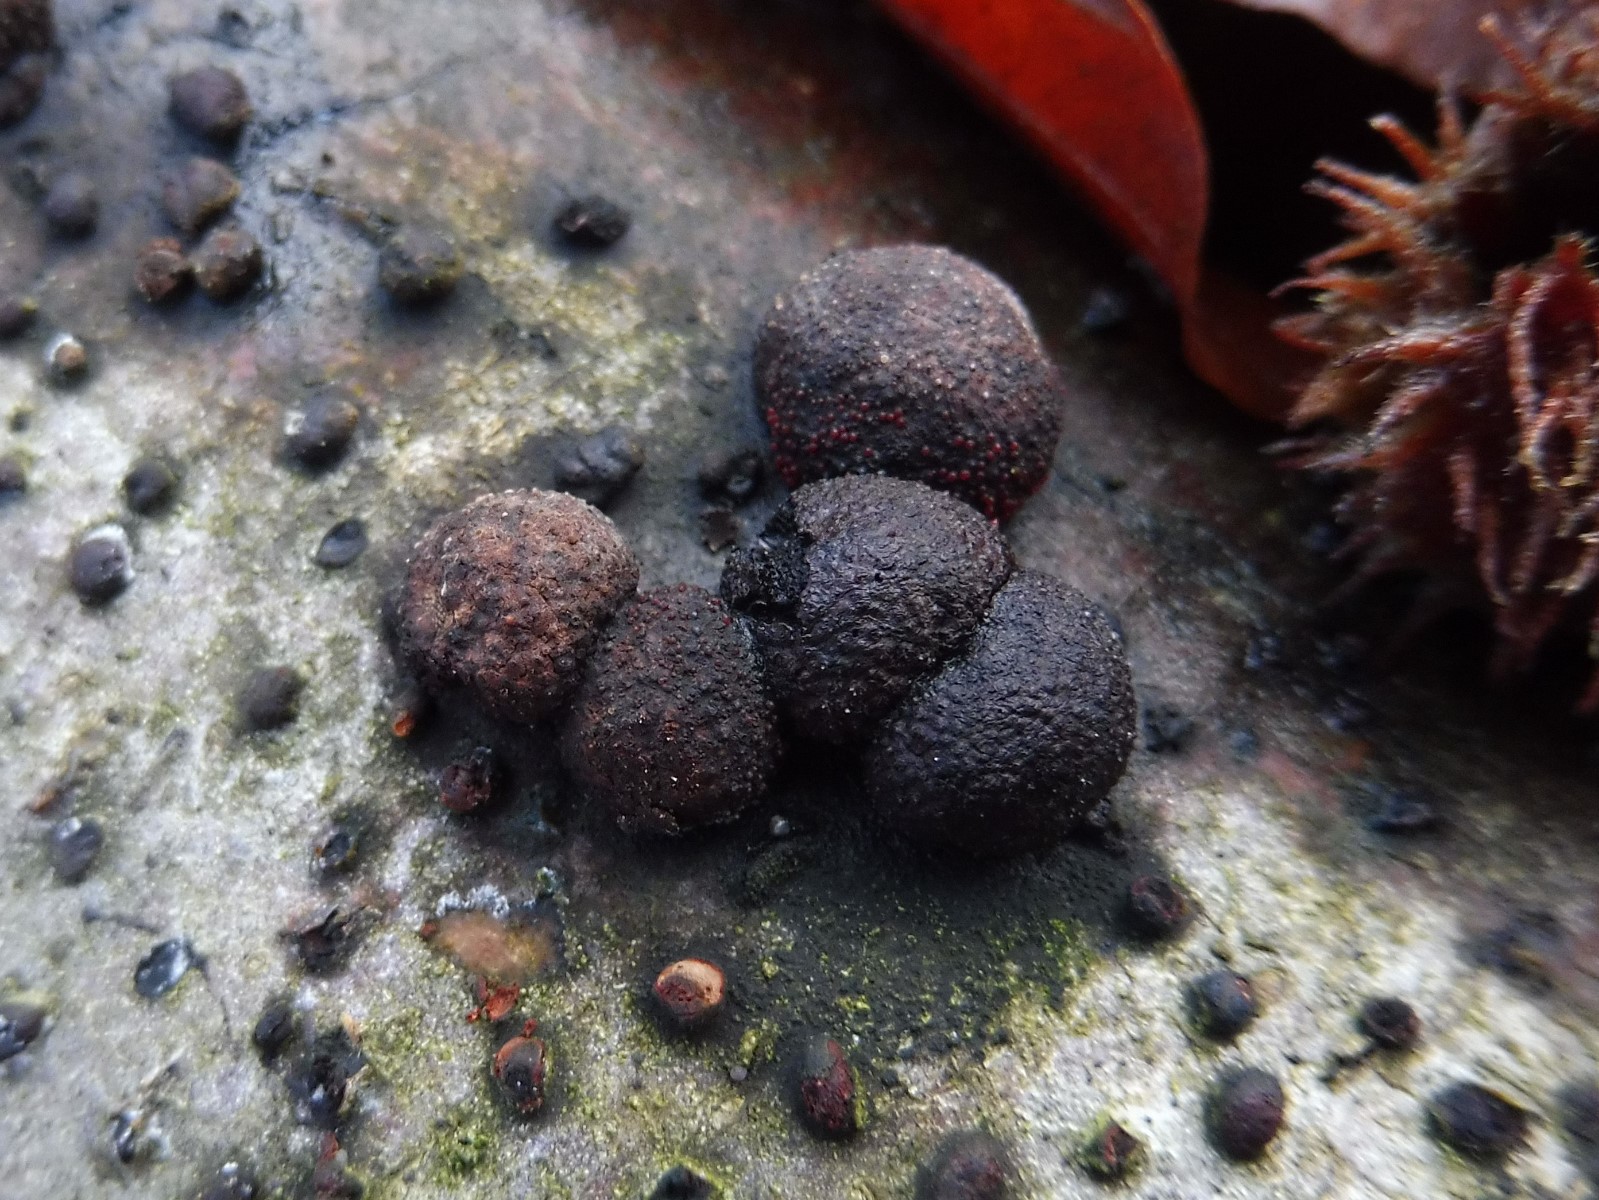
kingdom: Fungi
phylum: Ascomycota
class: Sordariomycetes
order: Xylariales
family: Hypoxylaceae
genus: Hypoxylon
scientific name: Hypoxylon fragiforme
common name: kuljordbær
